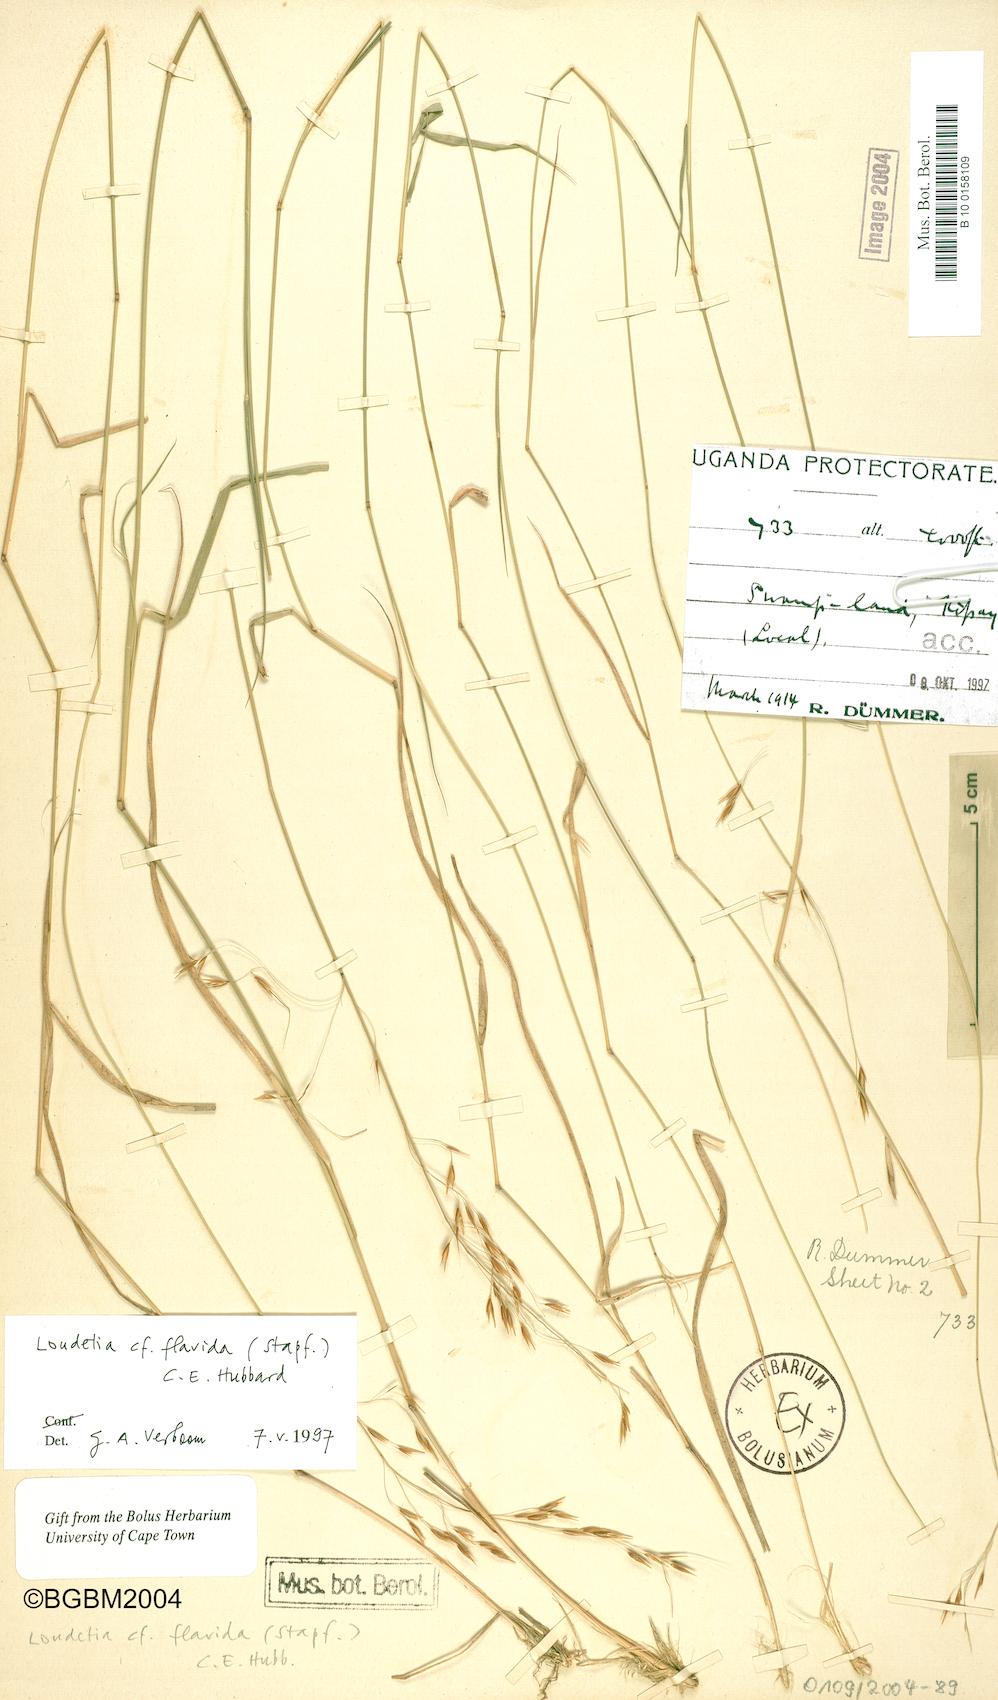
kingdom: Plantae
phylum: Tracheophyta
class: Liliopsida
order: Poales
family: Poaceae
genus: Loudetia
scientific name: Loudetia flavida
